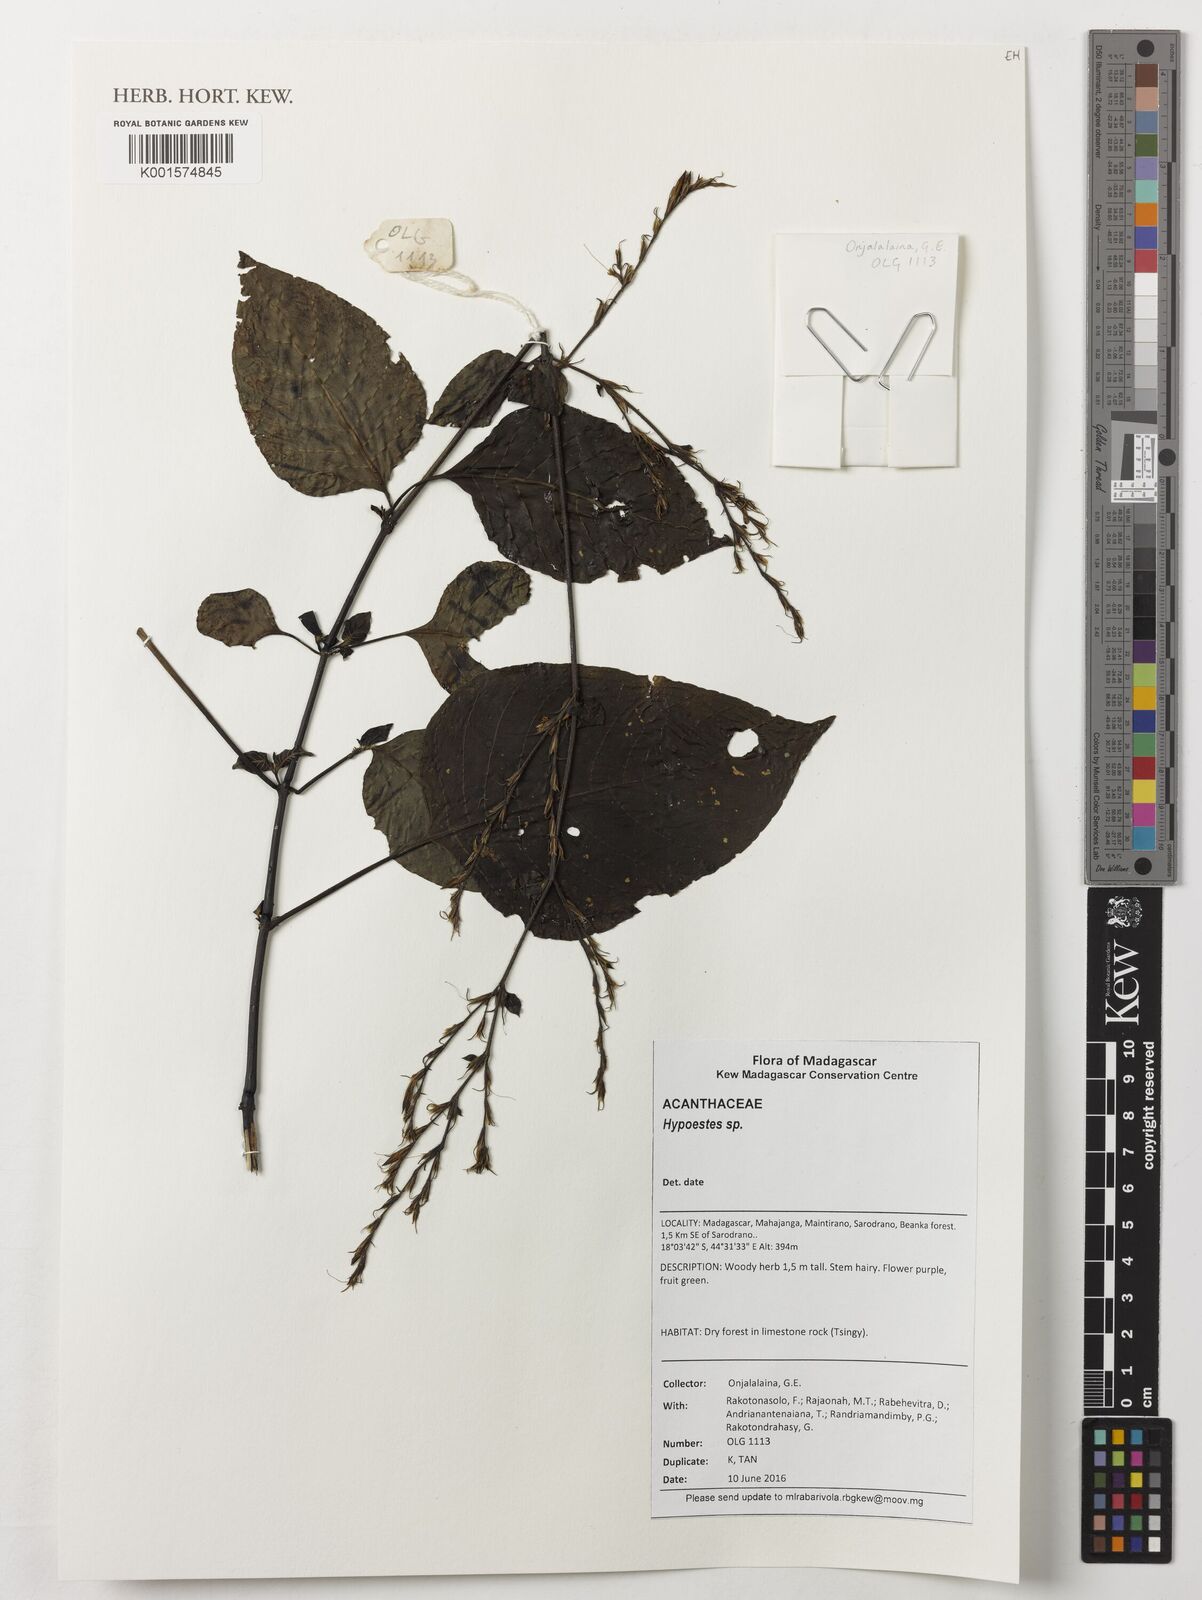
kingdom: Plantae
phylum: Tracheophyta
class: Magnoliopsida
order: Lamiales
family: Acanthaceae
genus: Hypoestes
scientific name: Hypoestes
